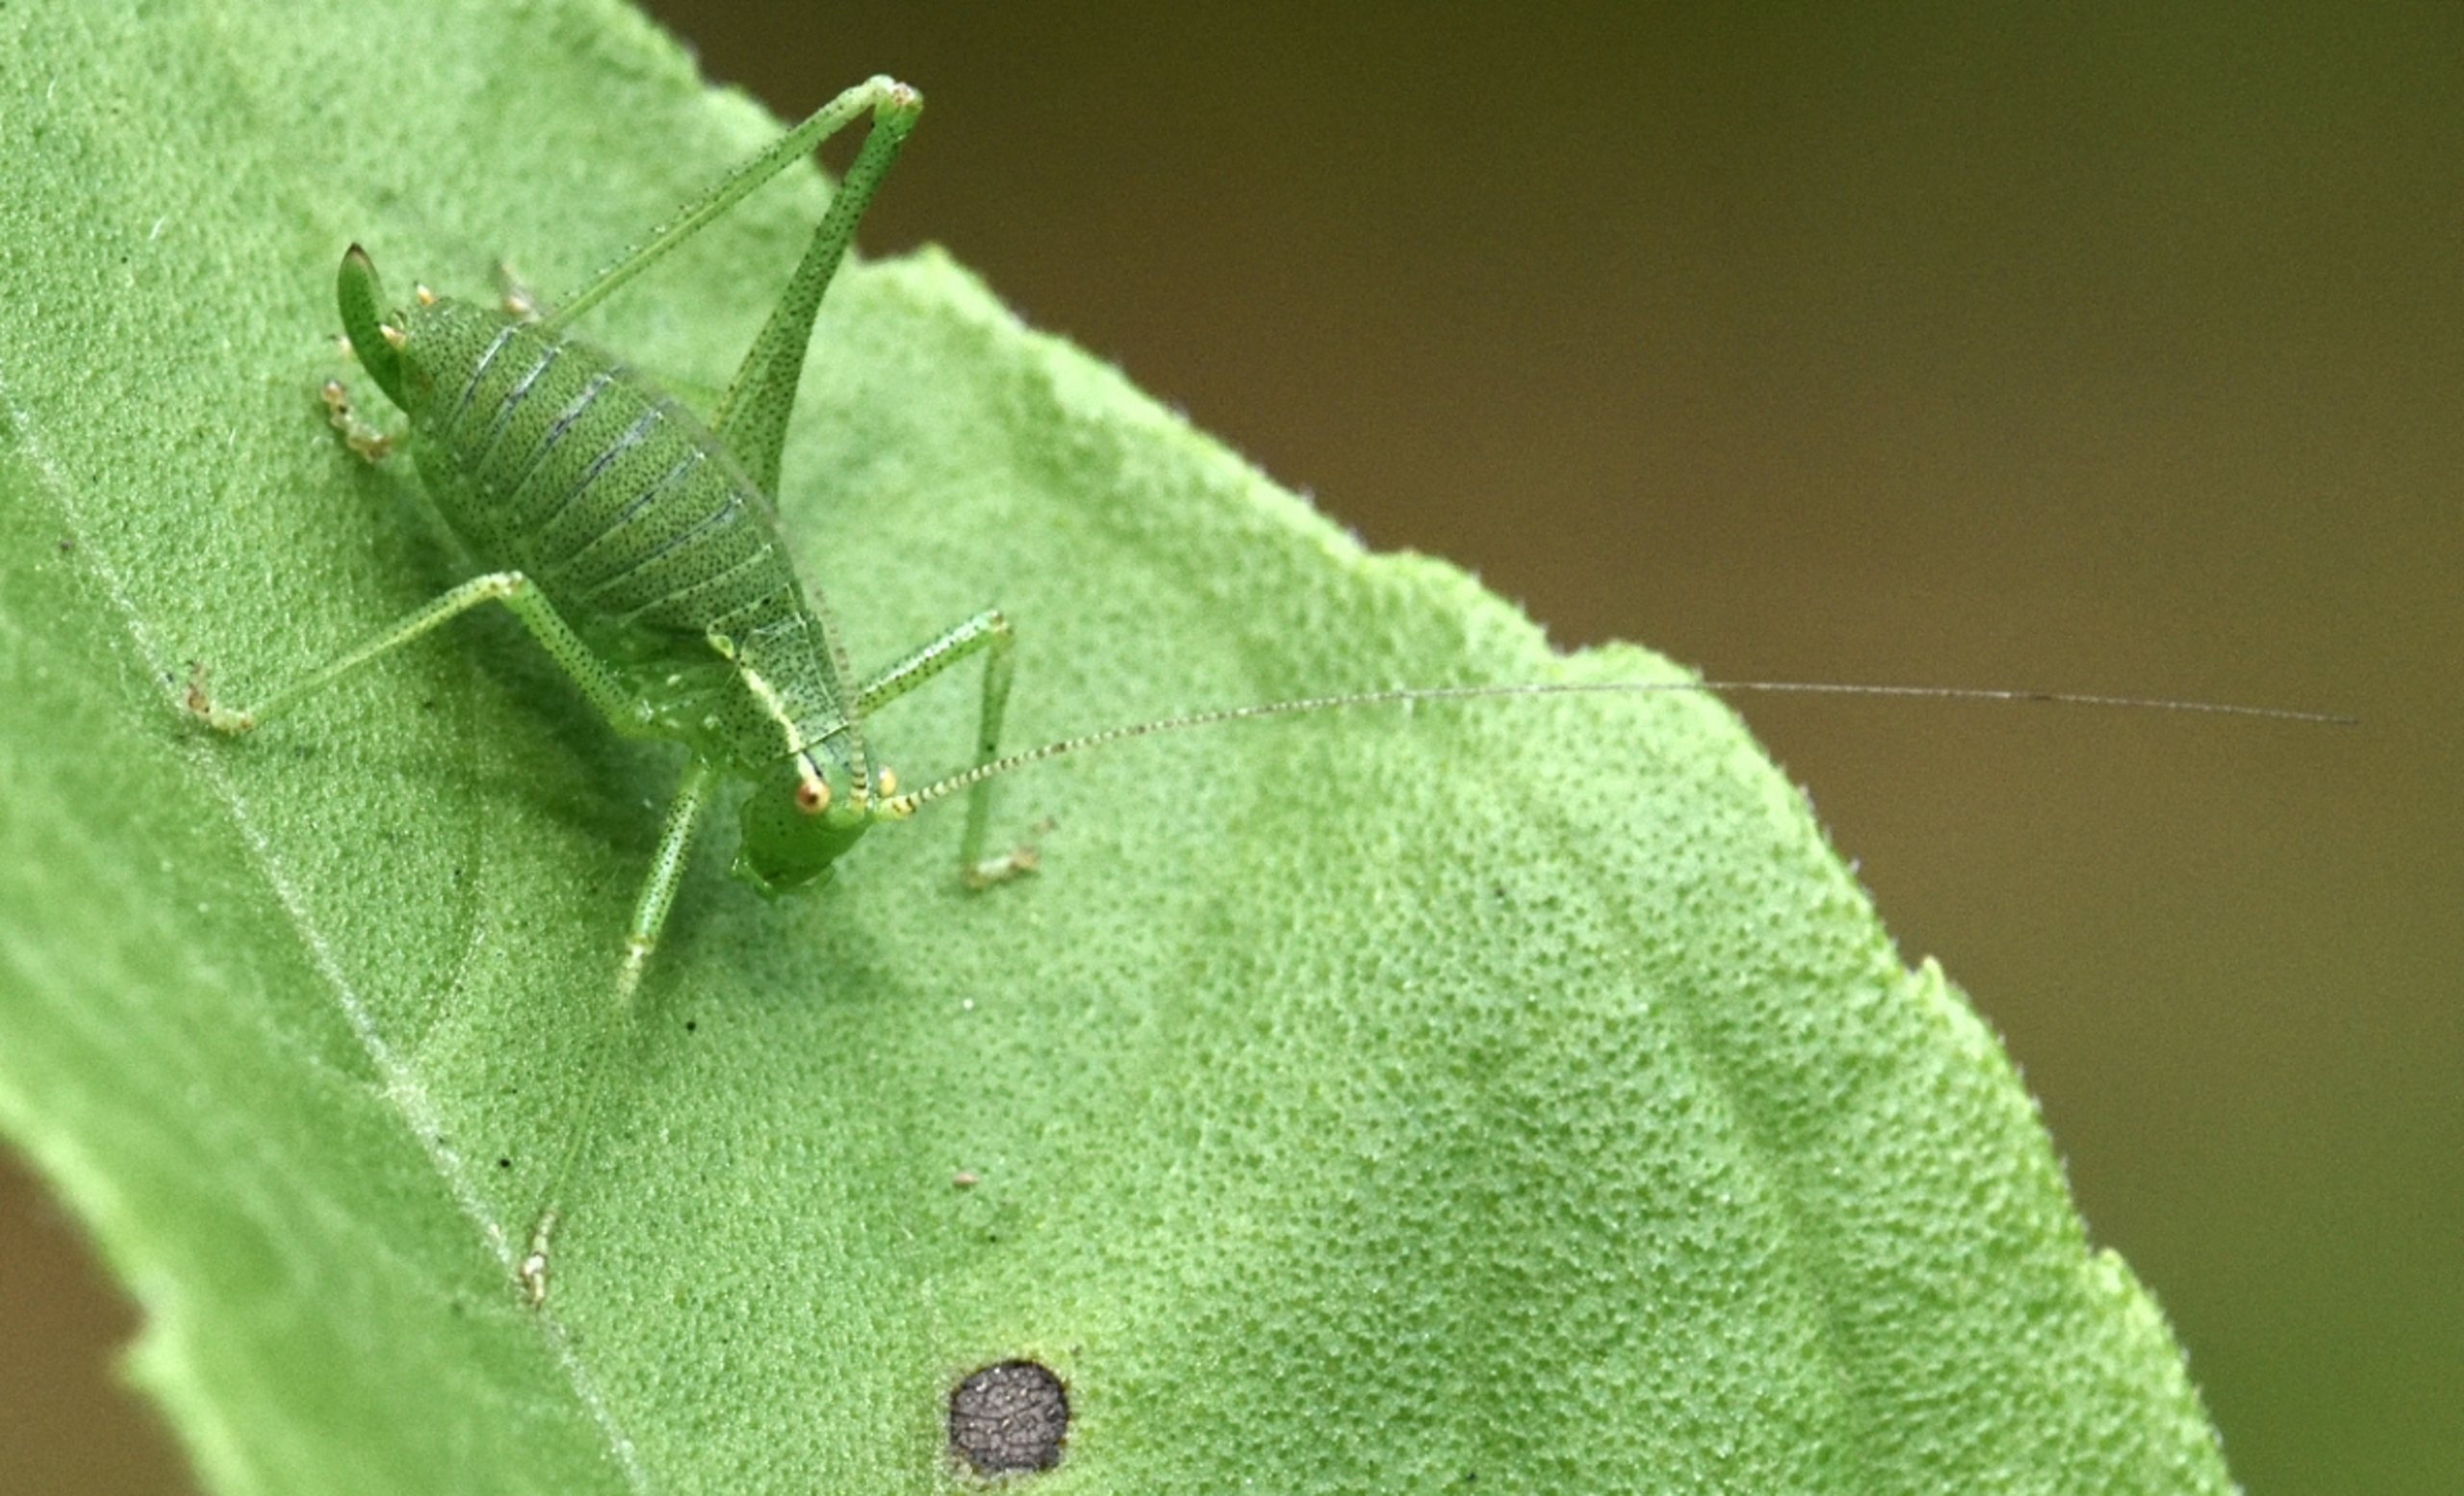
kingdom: Animalia
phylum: Arthropoda
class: Insecta
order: Orthoptera
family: Tettigoniidae
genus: Leptophyes
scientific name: Leptophyes punctatissima
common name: Krumknivgræshoppe
